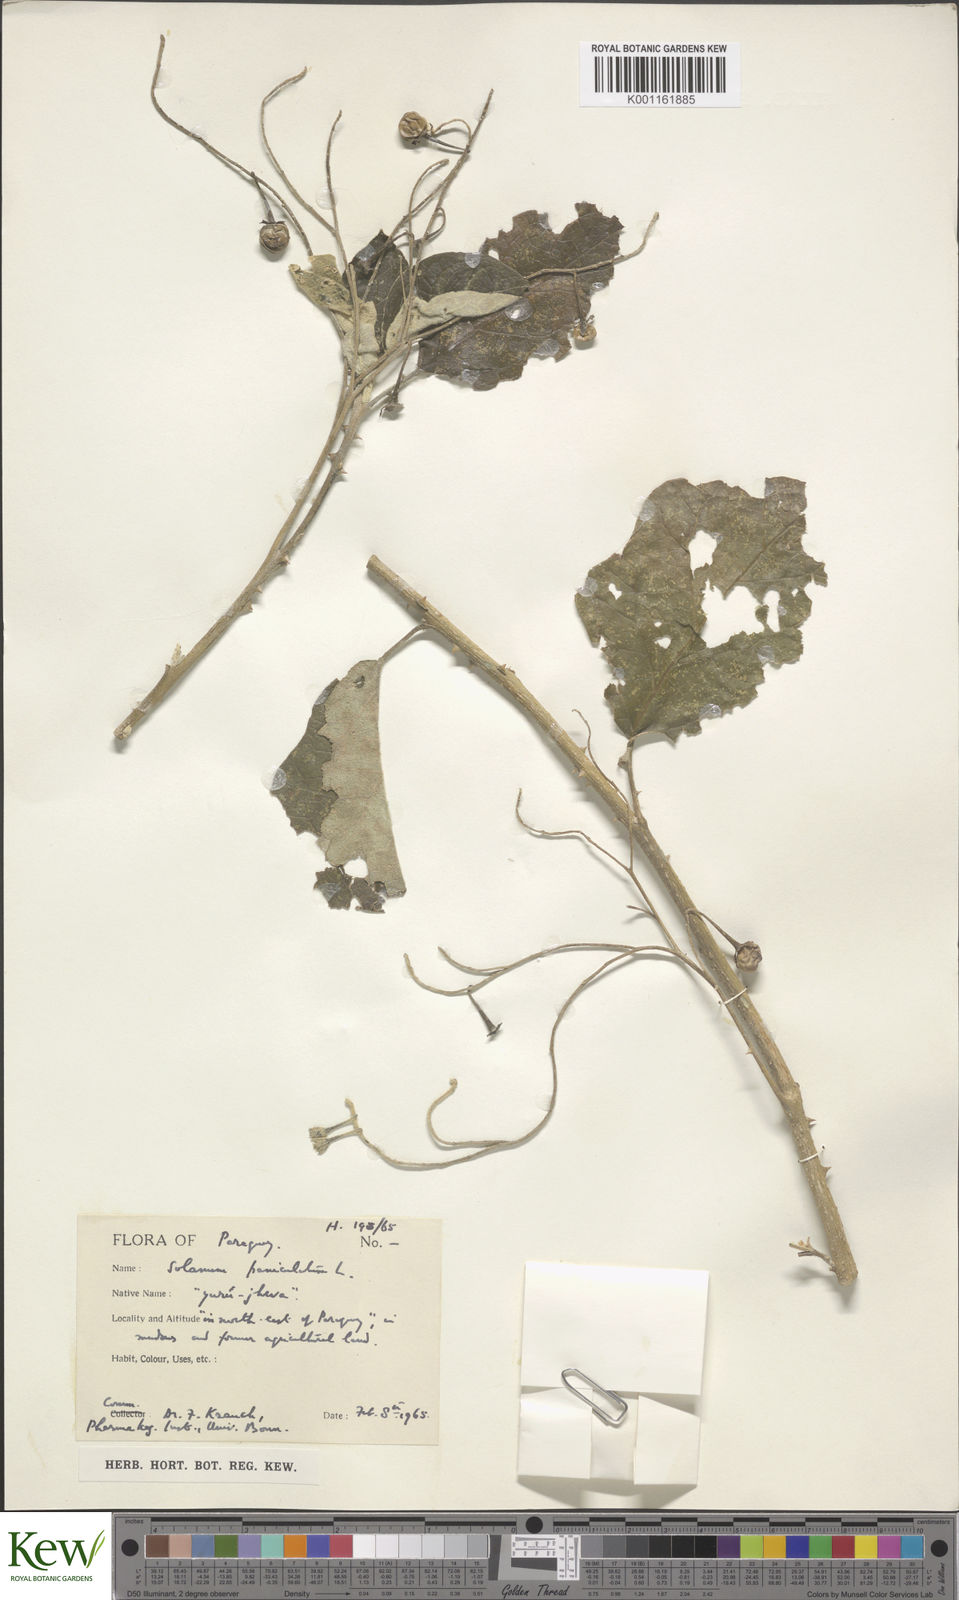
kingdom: Plantae
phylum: Tracheophyta
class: Magnoliopsida
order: Solanales
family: Solanaceae
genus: Solanum
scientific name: Solanum paniculatum
